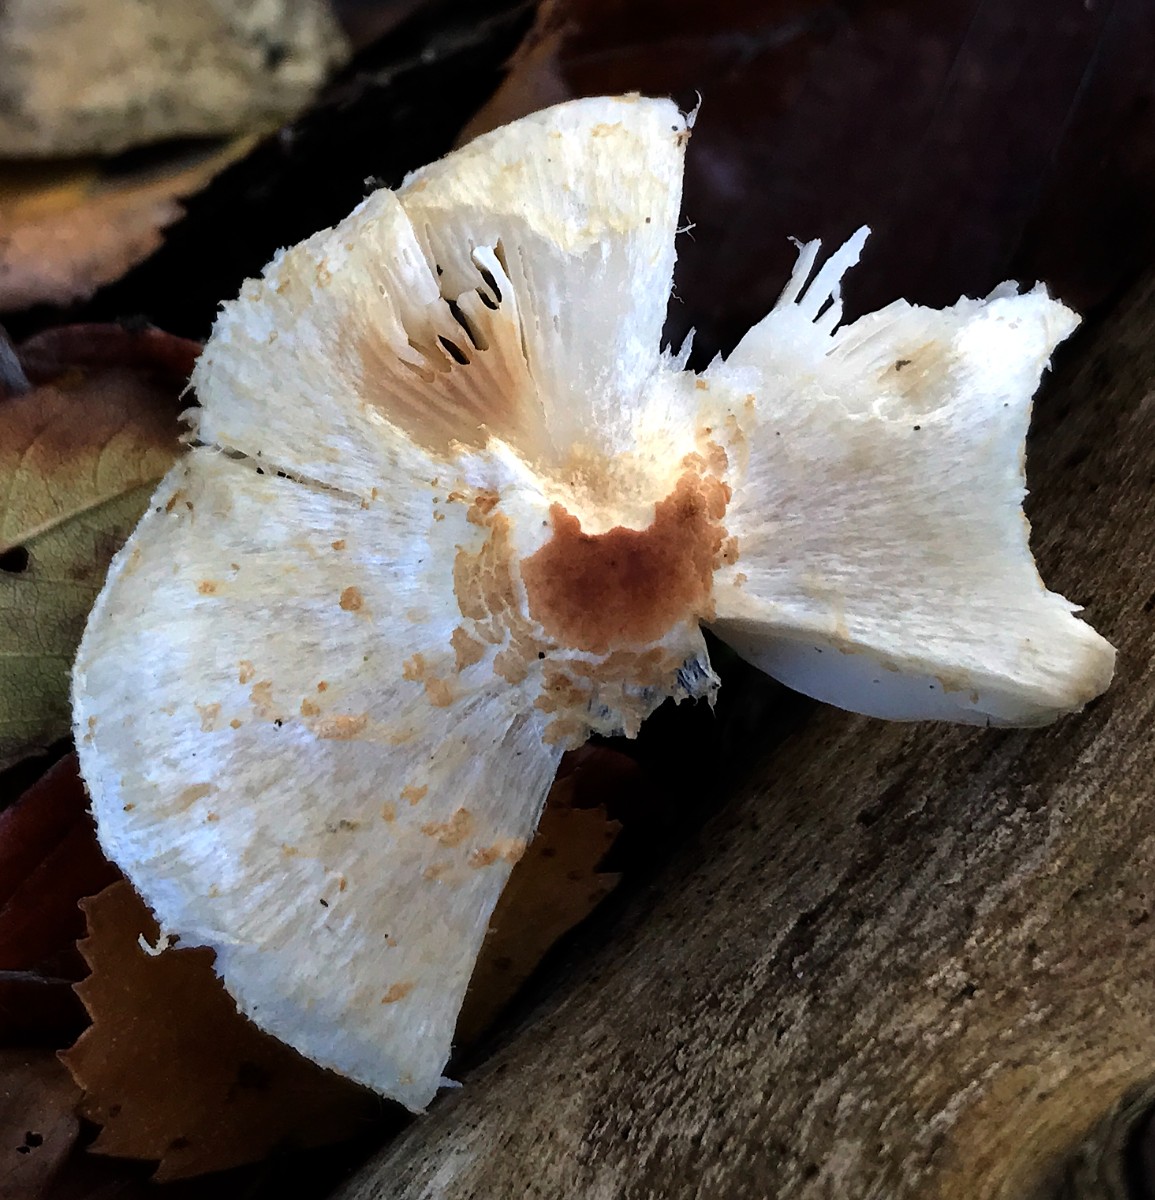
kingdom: Fungi
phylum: Basidiomycota
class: Agaricomycetes
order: Agaricales
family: Agaricaceae
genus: Lepiota
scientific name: Lepiota cristata
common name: stinkende parasolhat
